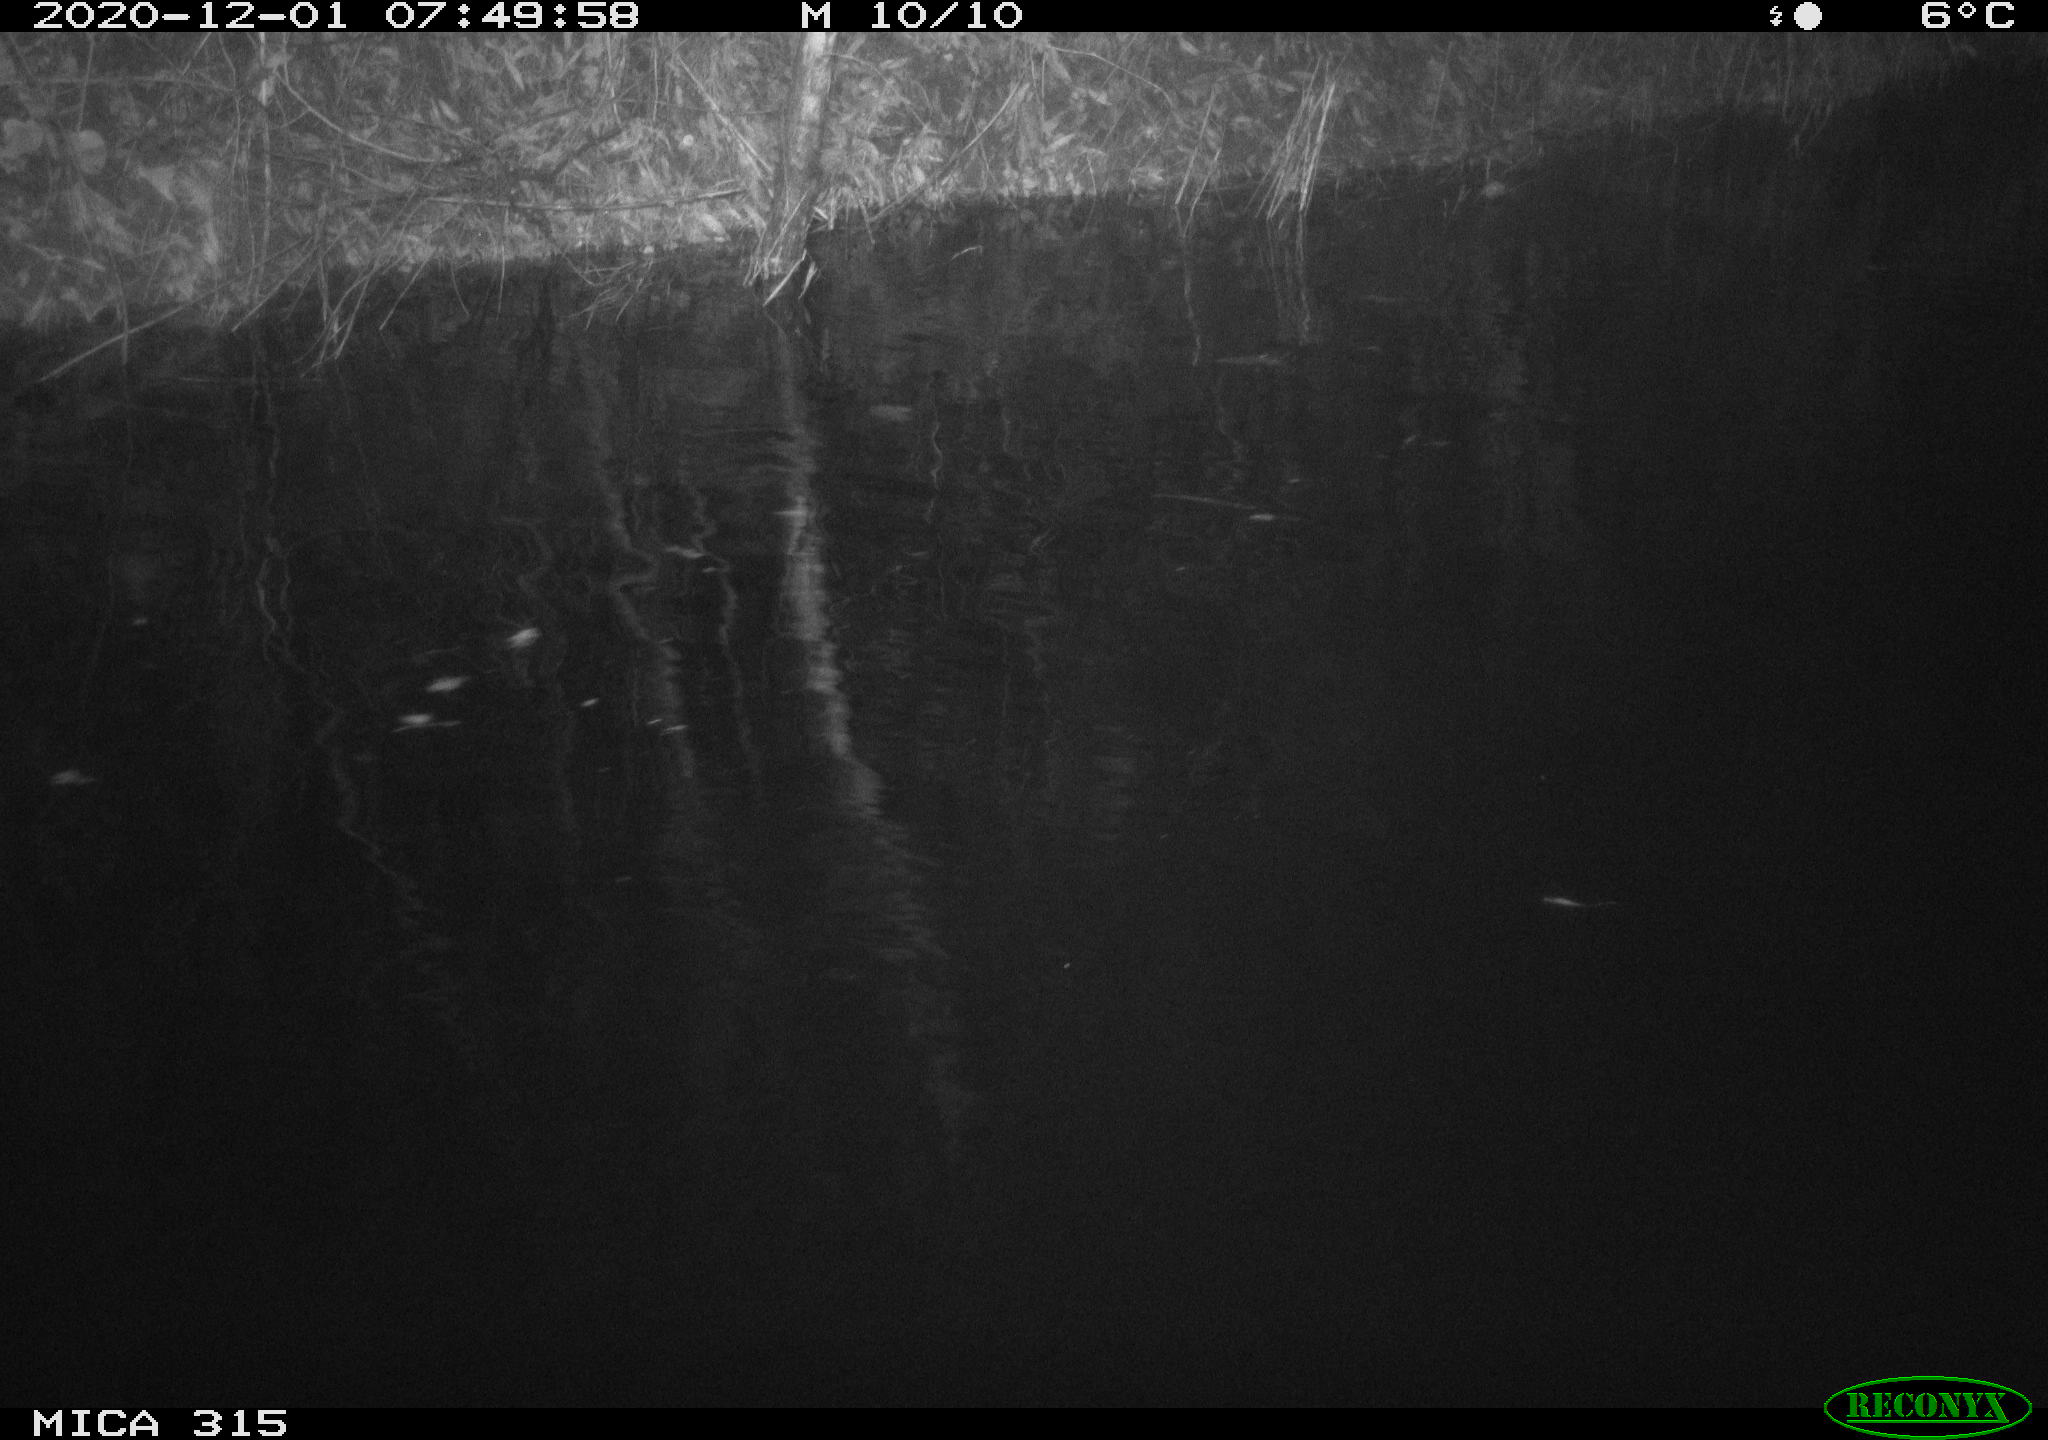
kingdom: Animalia
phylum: Chordata
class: Aves
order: Anseriformes
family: Anatidae
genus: Anas
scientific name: Anas platyrhynchos
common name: Mallard
